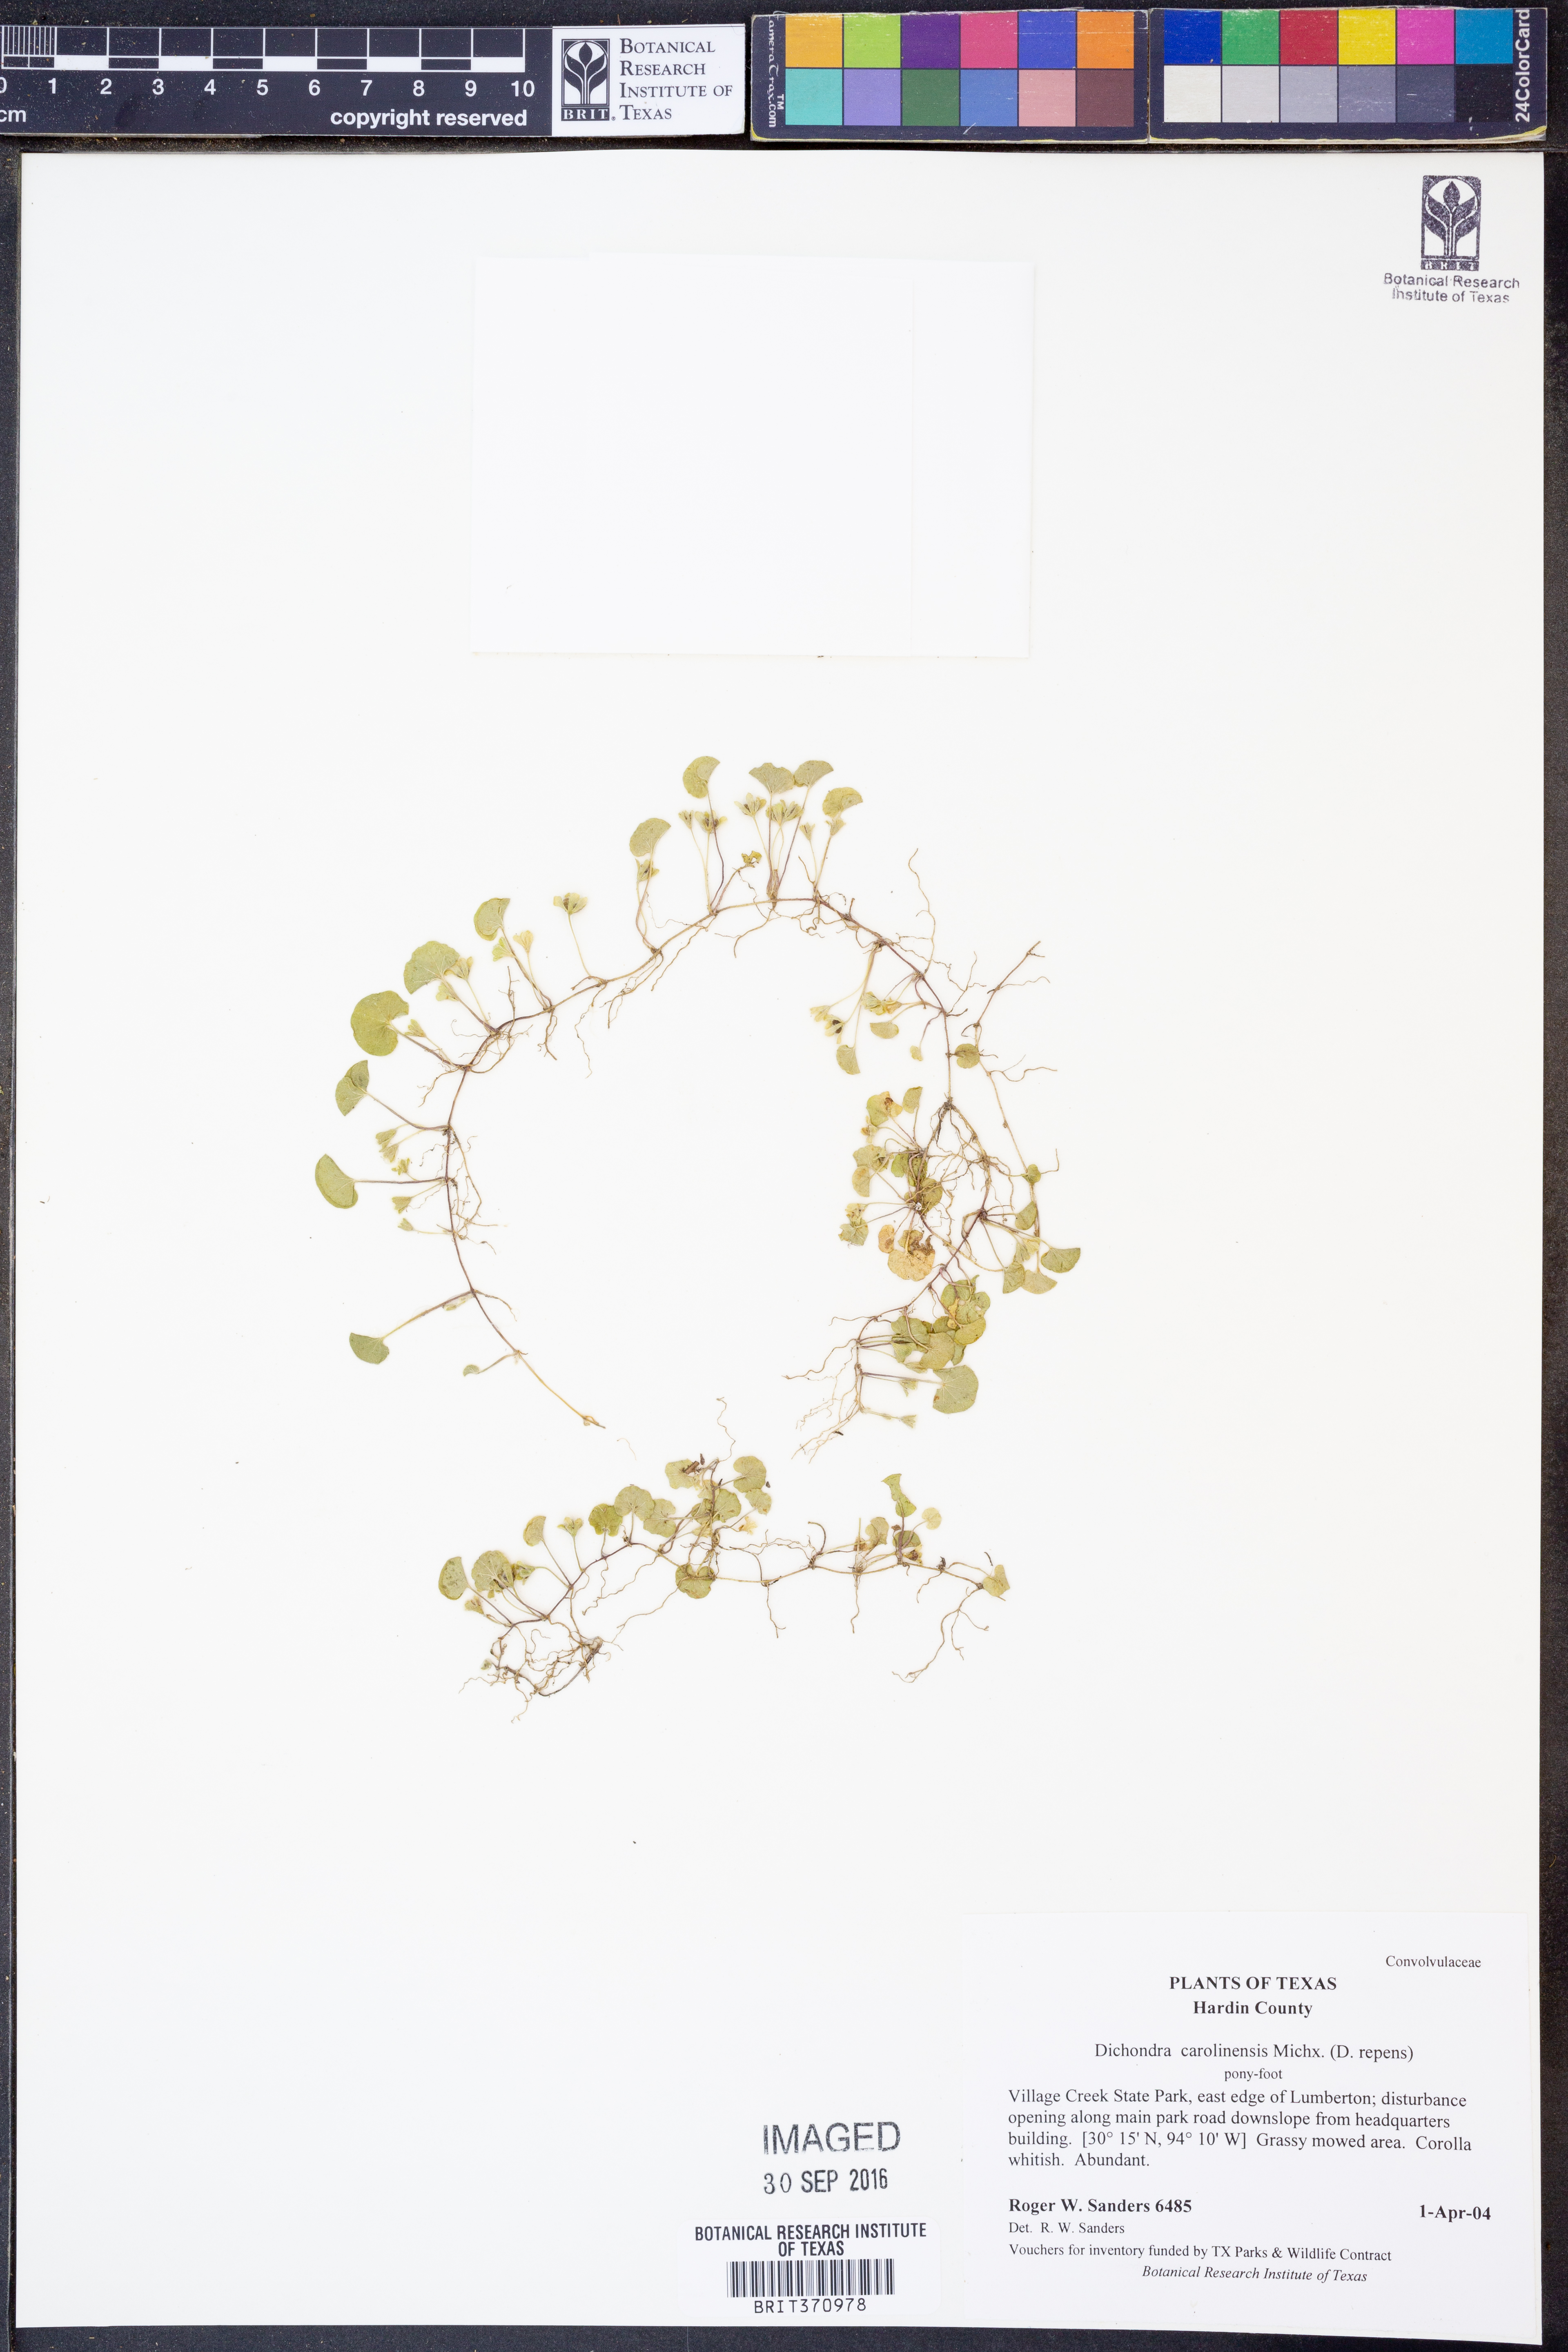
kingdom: Plantae
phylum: Tracheophyta
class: Magnoliopsida
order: Solanales
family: Convolvulaceae
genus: Dichondra
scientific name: Dichondra carolinensis
